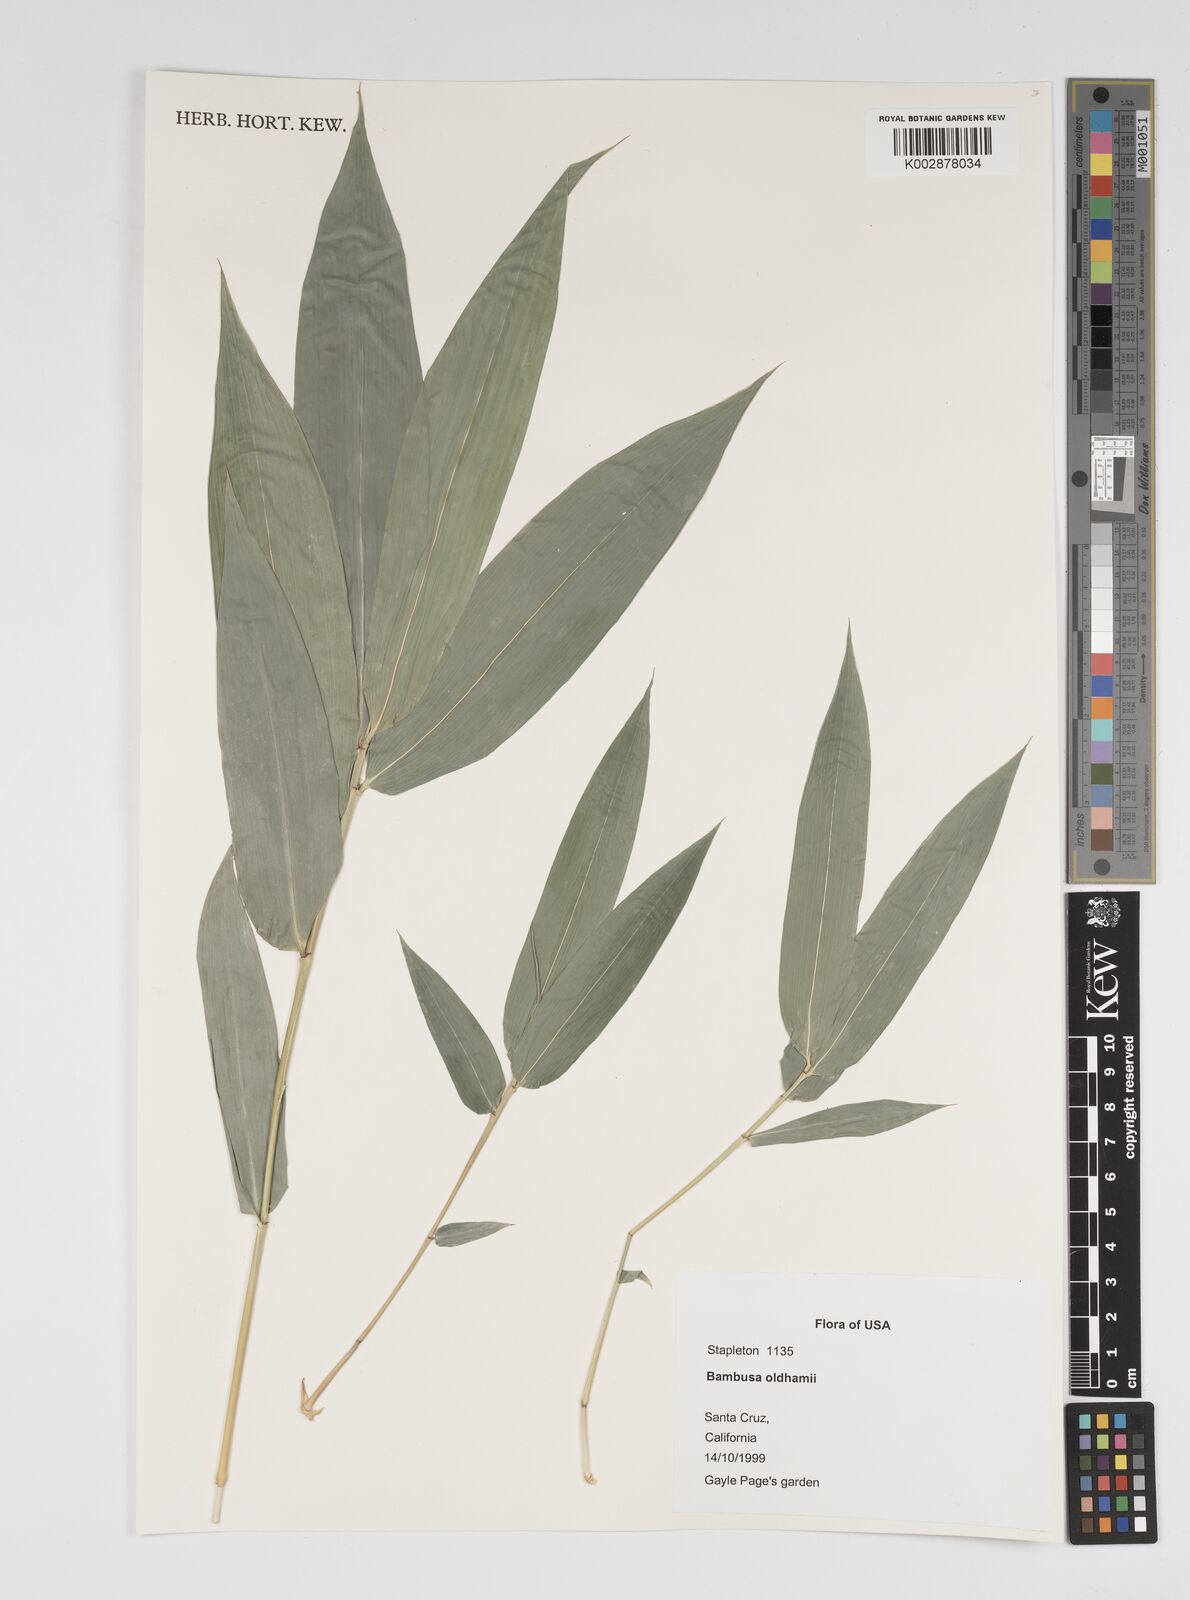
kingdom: Plantae
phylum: Tracheophyta
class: Liliopsida
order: Poales
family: Poaceae
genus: Bambusa
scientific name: Bambusa oldhamii
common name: Giant timber bamboo
